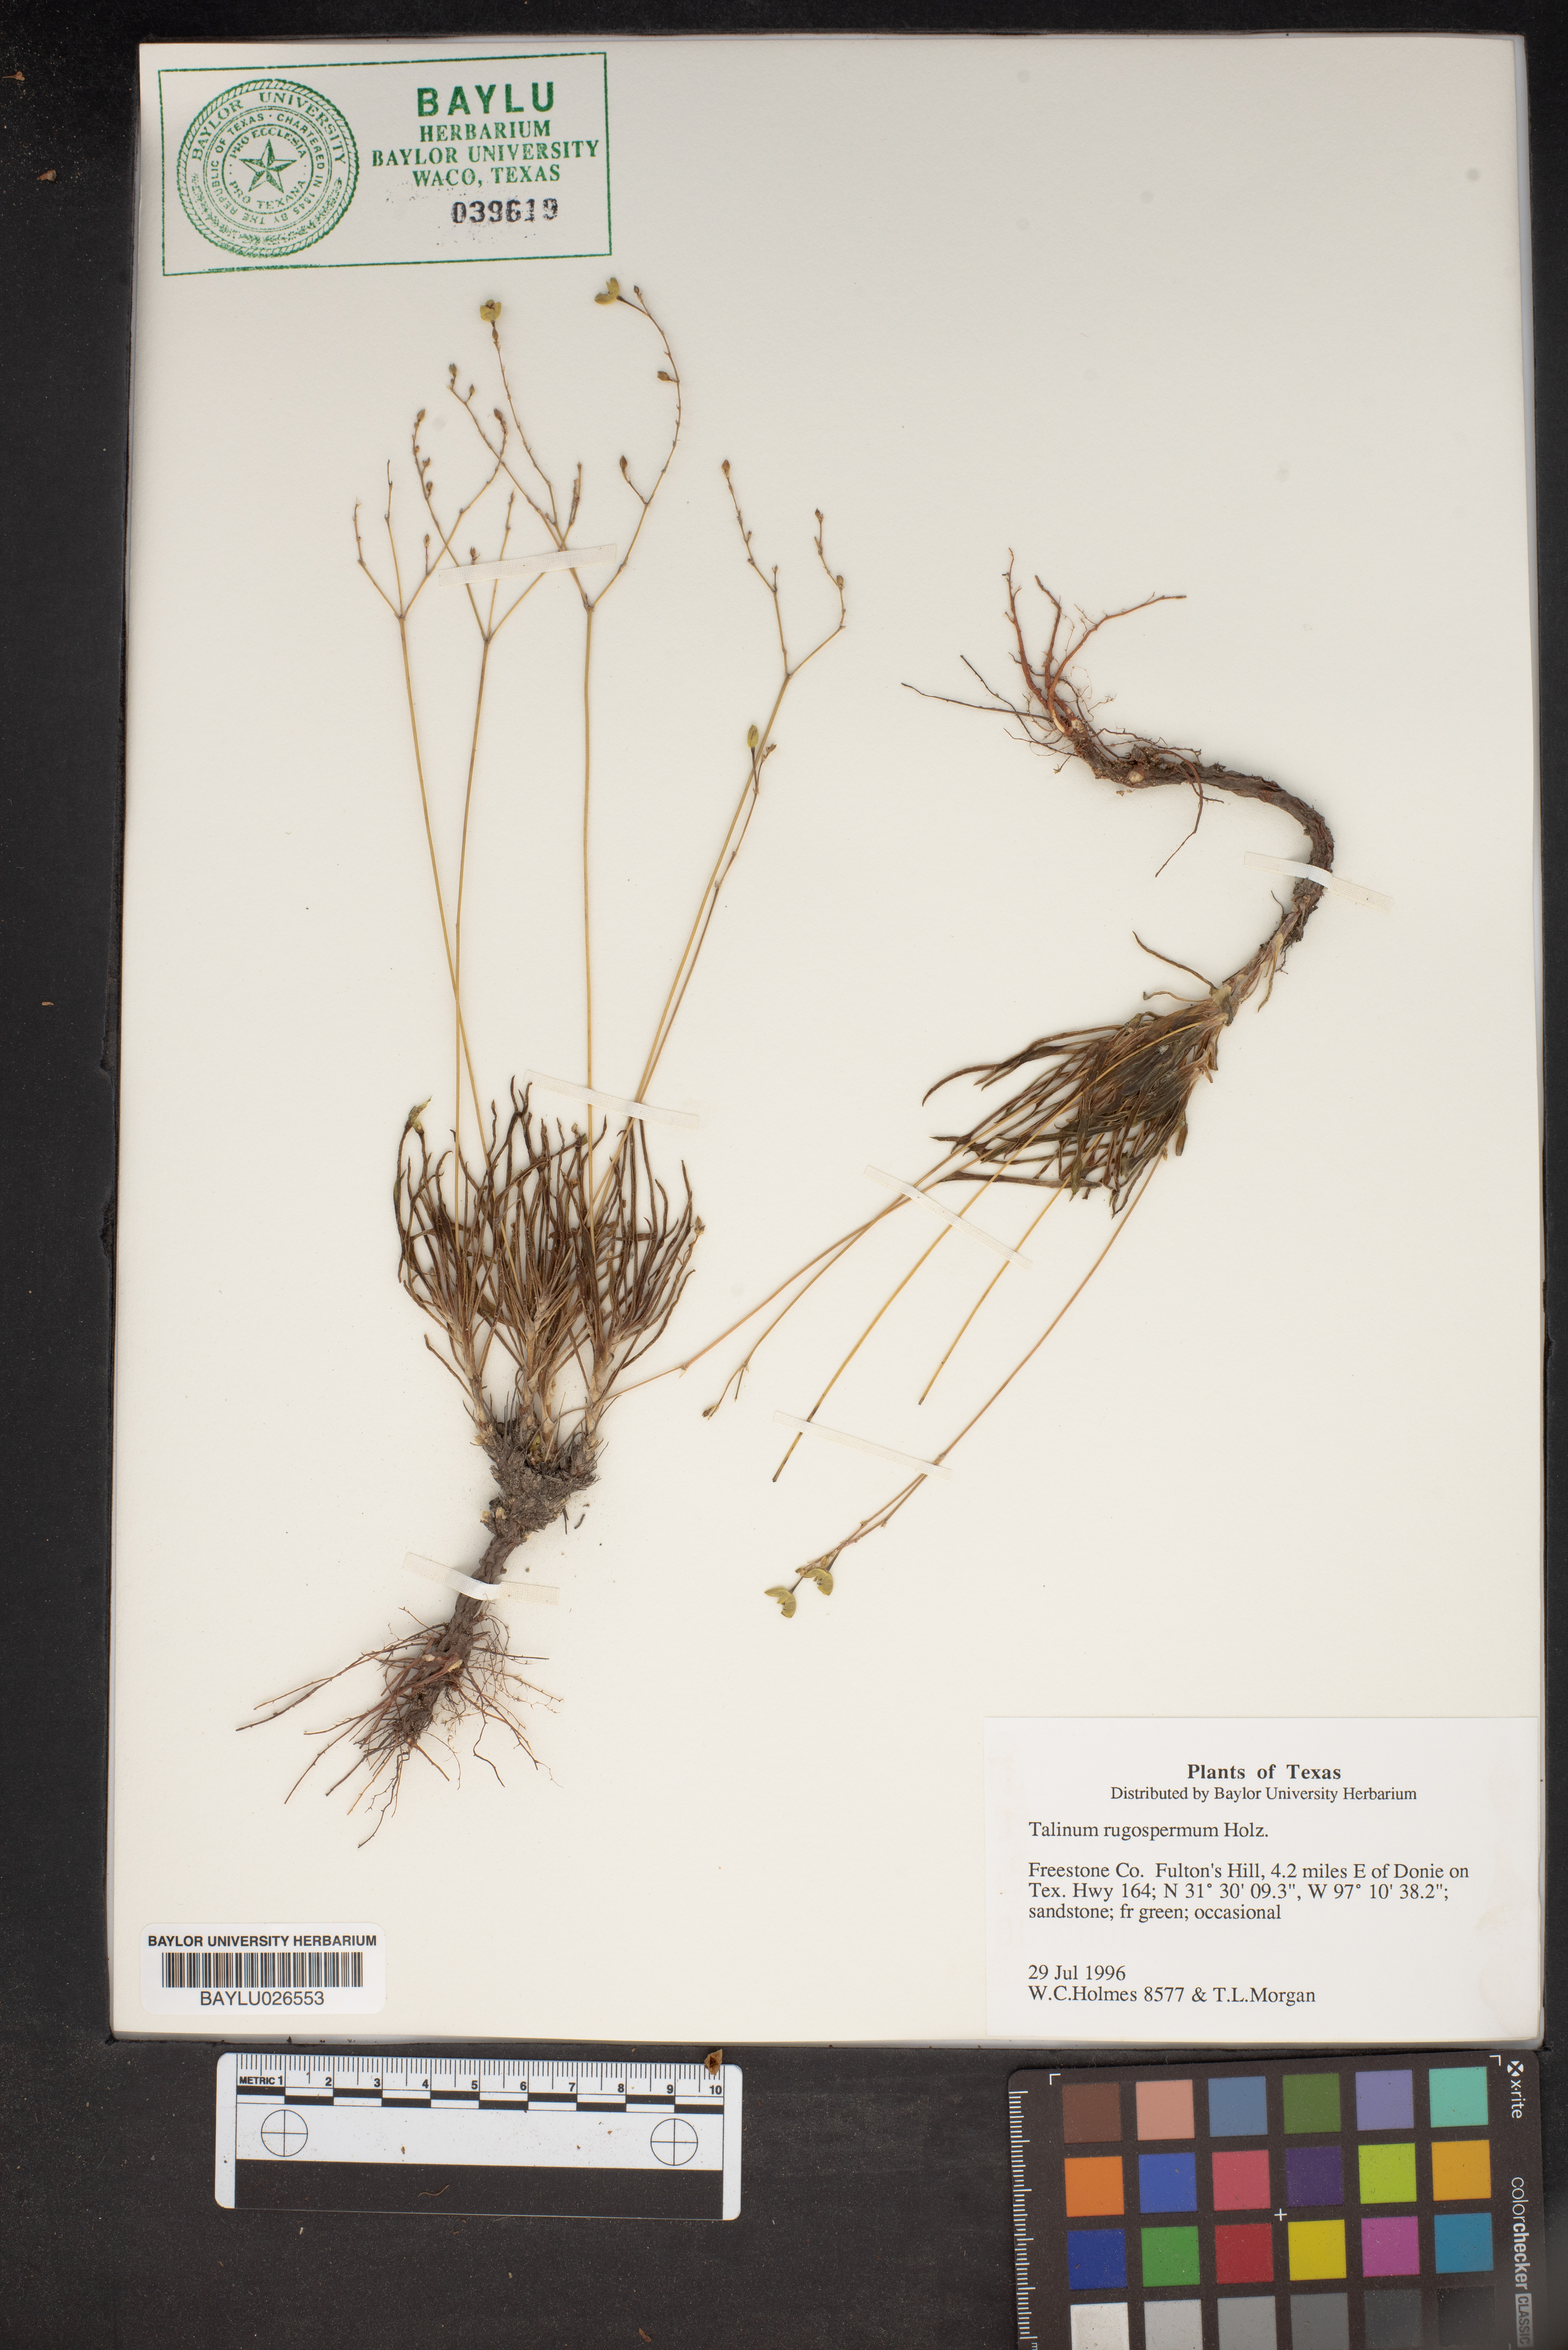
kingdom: Plantae
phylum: Tracheophyta
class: Magnoliopsida
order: Caryophyllales
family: Montiaceae
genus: Phemeranthus
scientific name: Phemeranthus rugospermus
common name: Prairie fameflower
